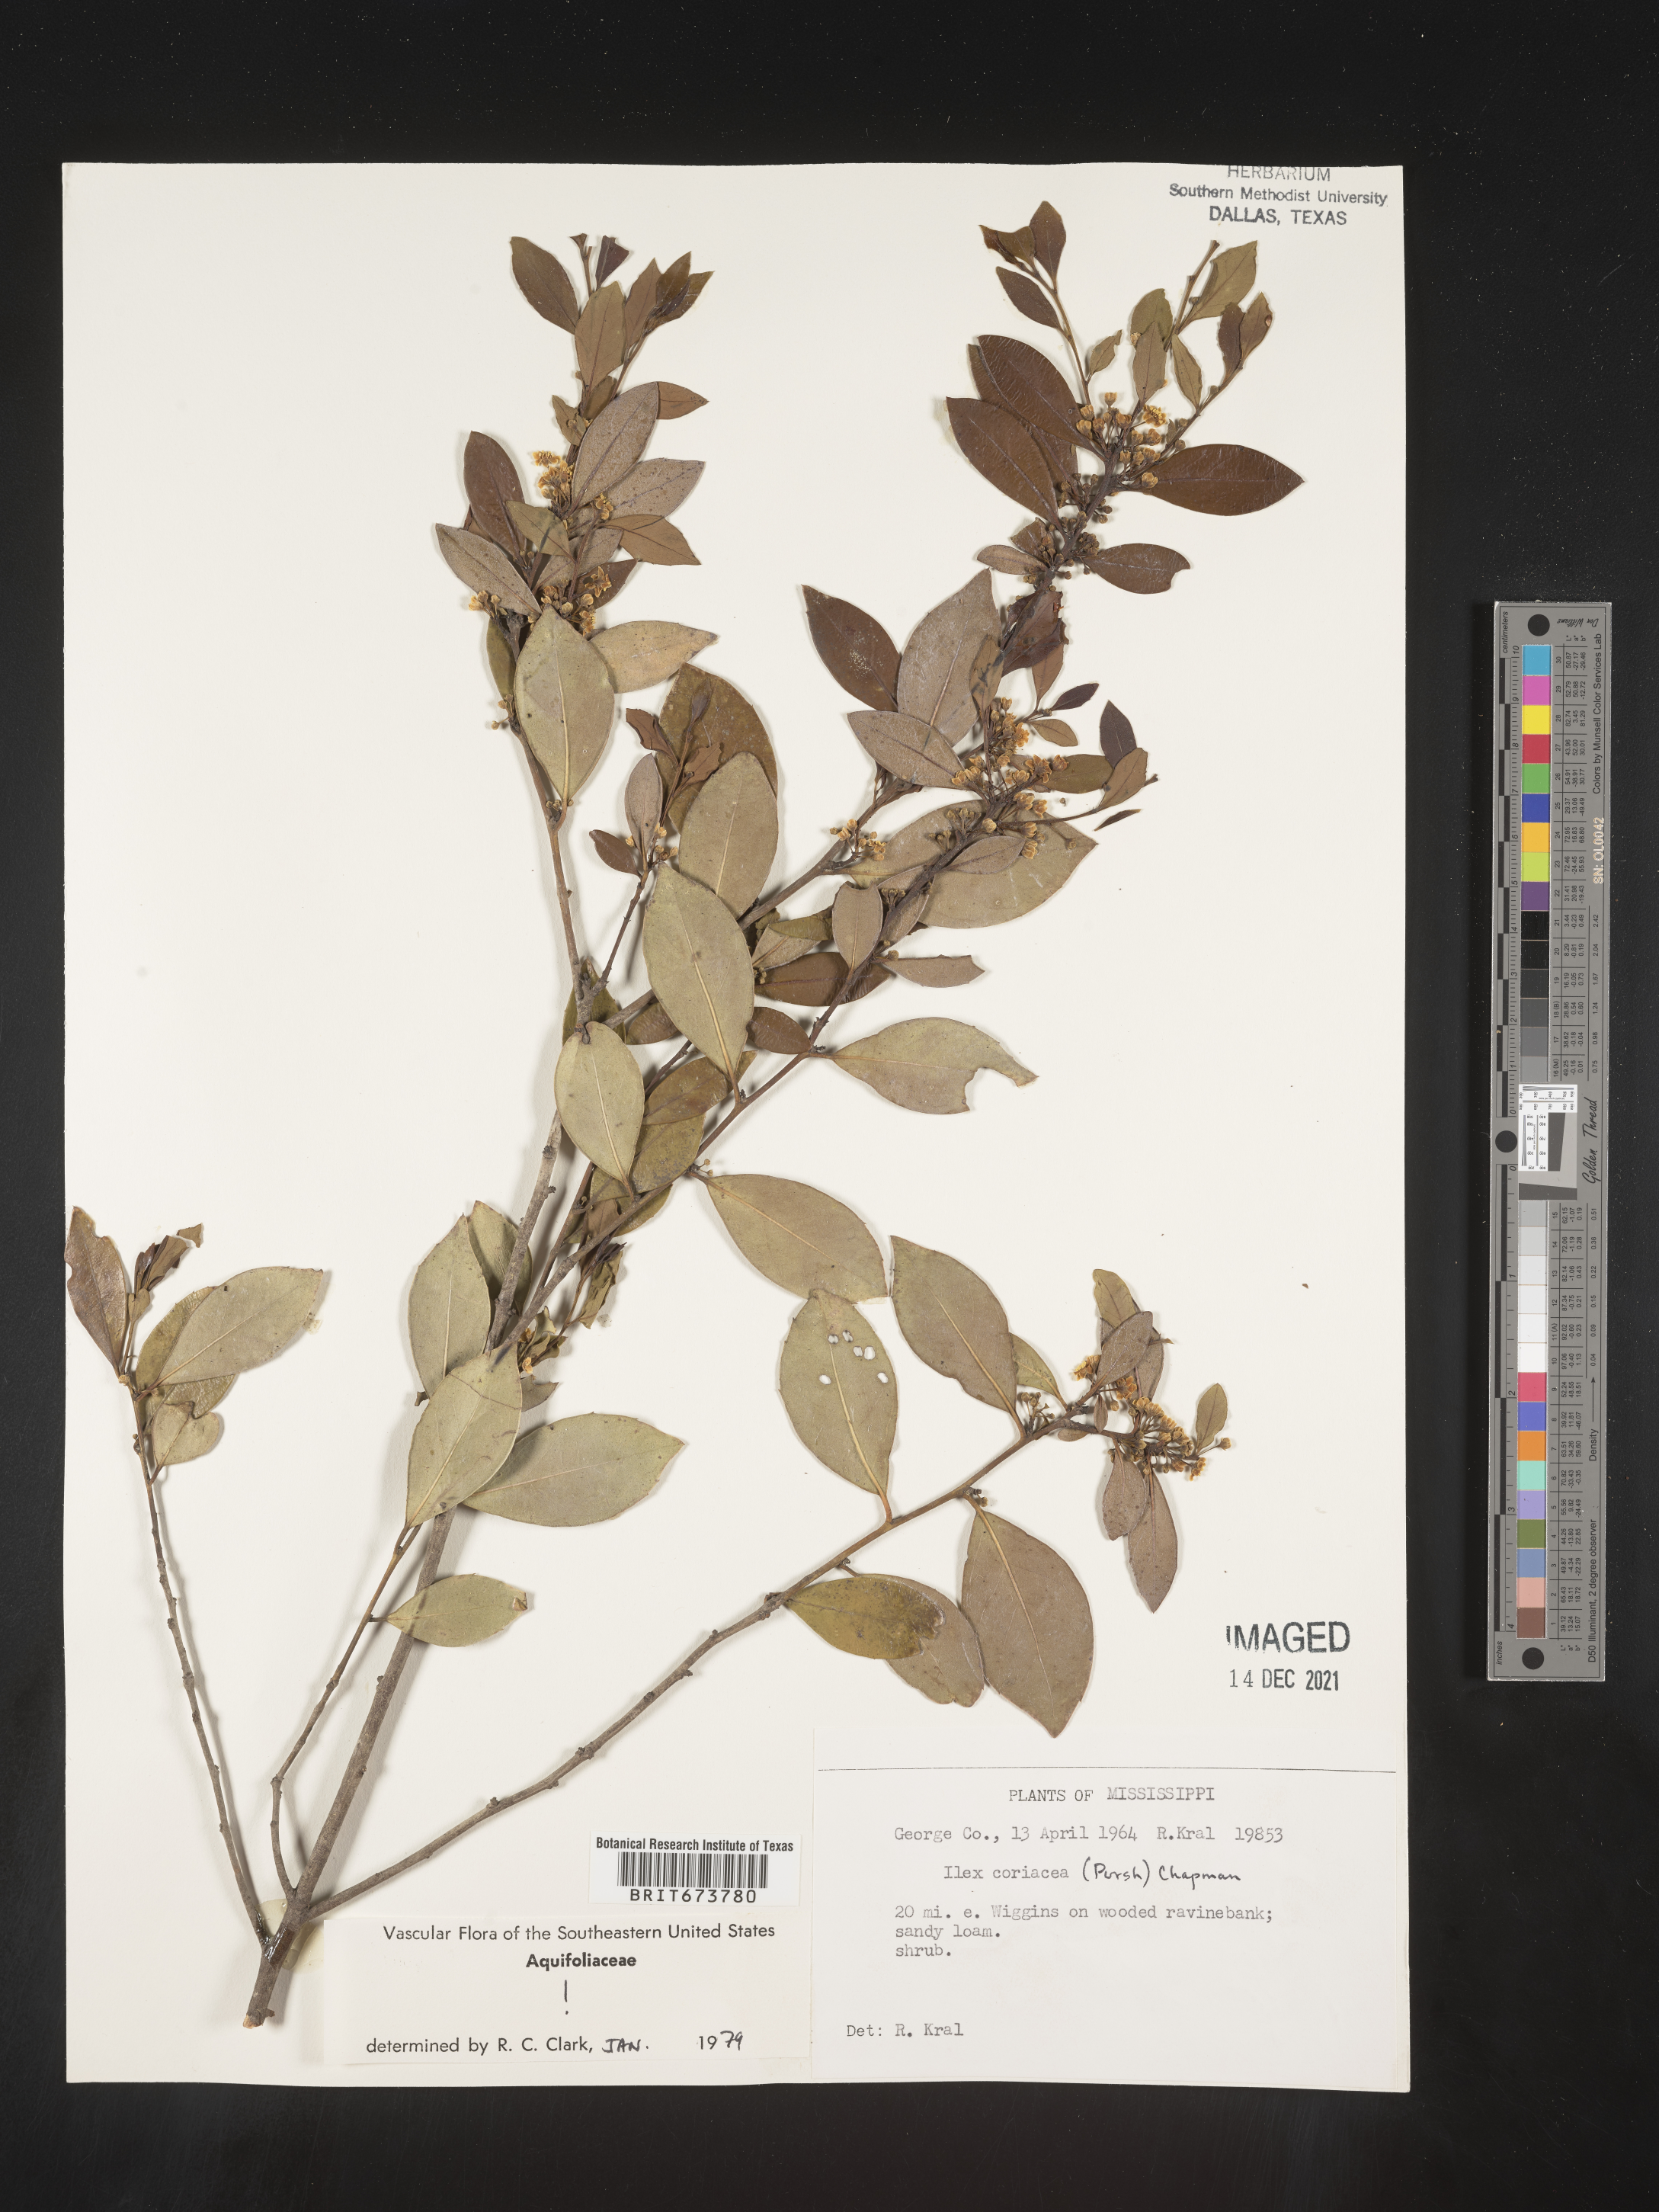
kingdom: Plantae
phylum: Tracheophyta
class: Magnoliopsida
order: Aquifoliales
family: Aquifoliaceae
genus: Ilex
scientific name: Ilex coriacea
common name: Sweet gallberry
